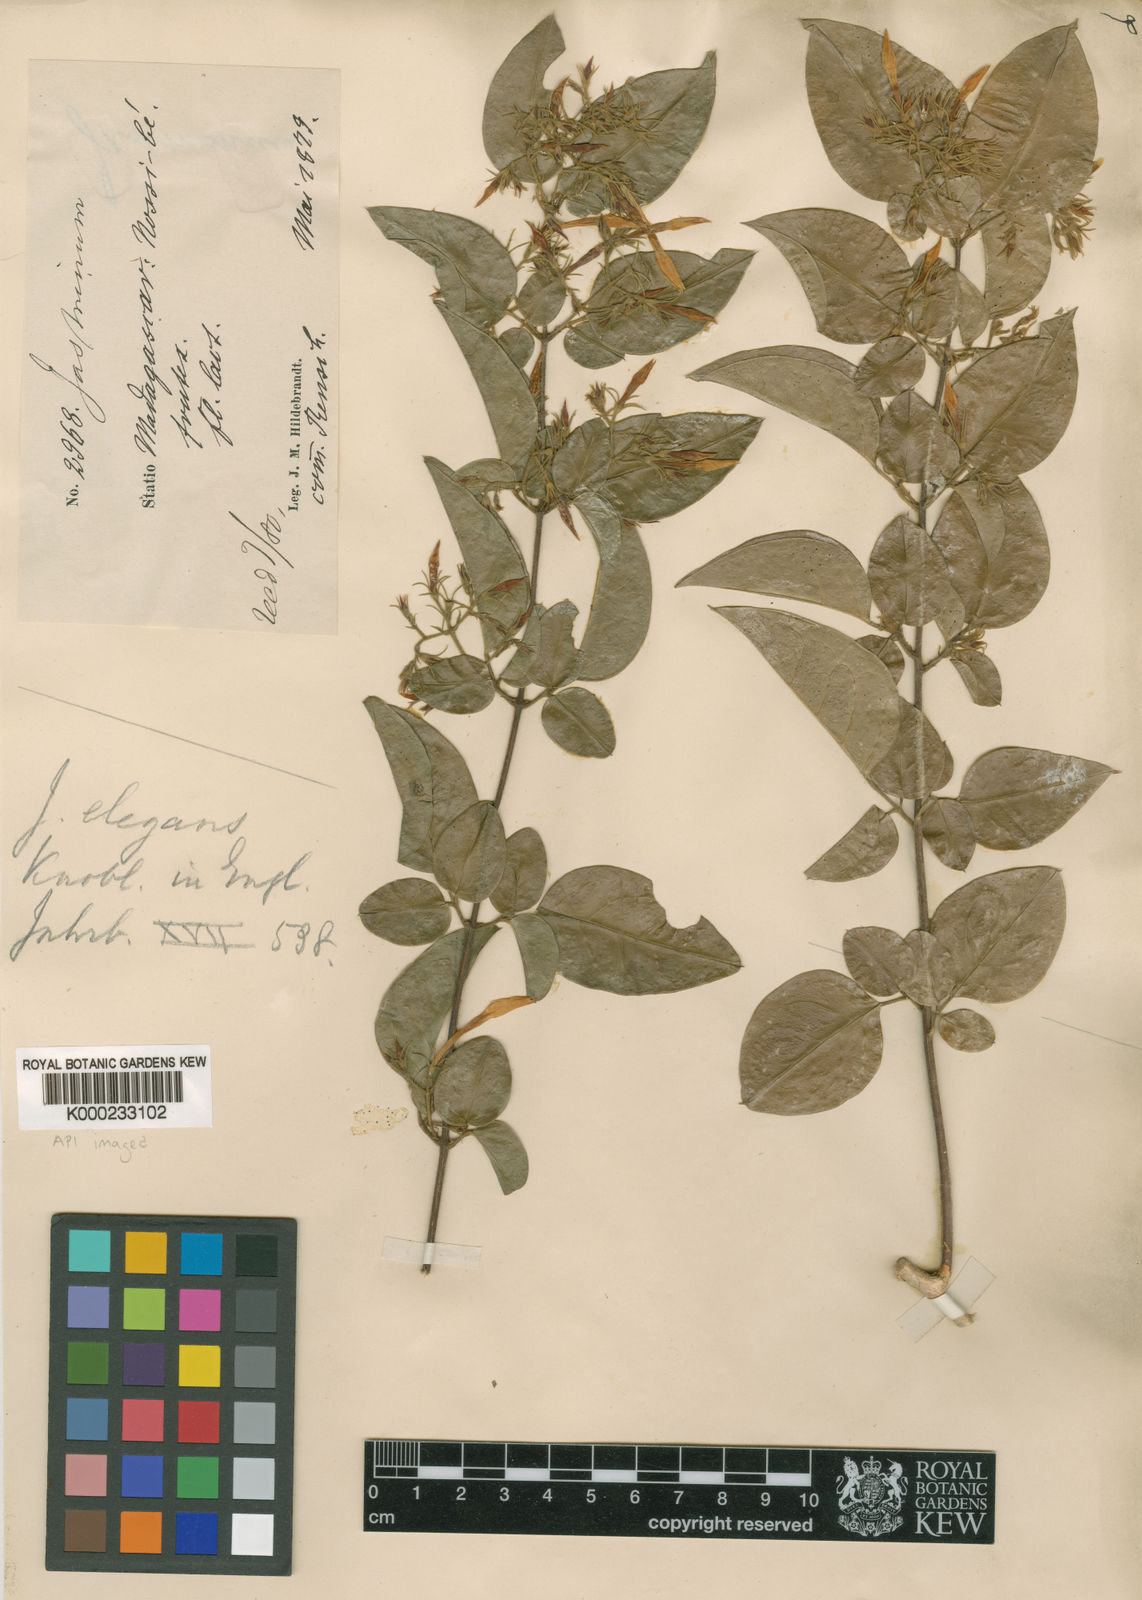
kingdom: Plantae
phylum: Tracheophyta
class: Magnoliopsida
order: Lamiales
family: Oleaceae
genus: Jasminum
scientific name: Jasminum elegans
